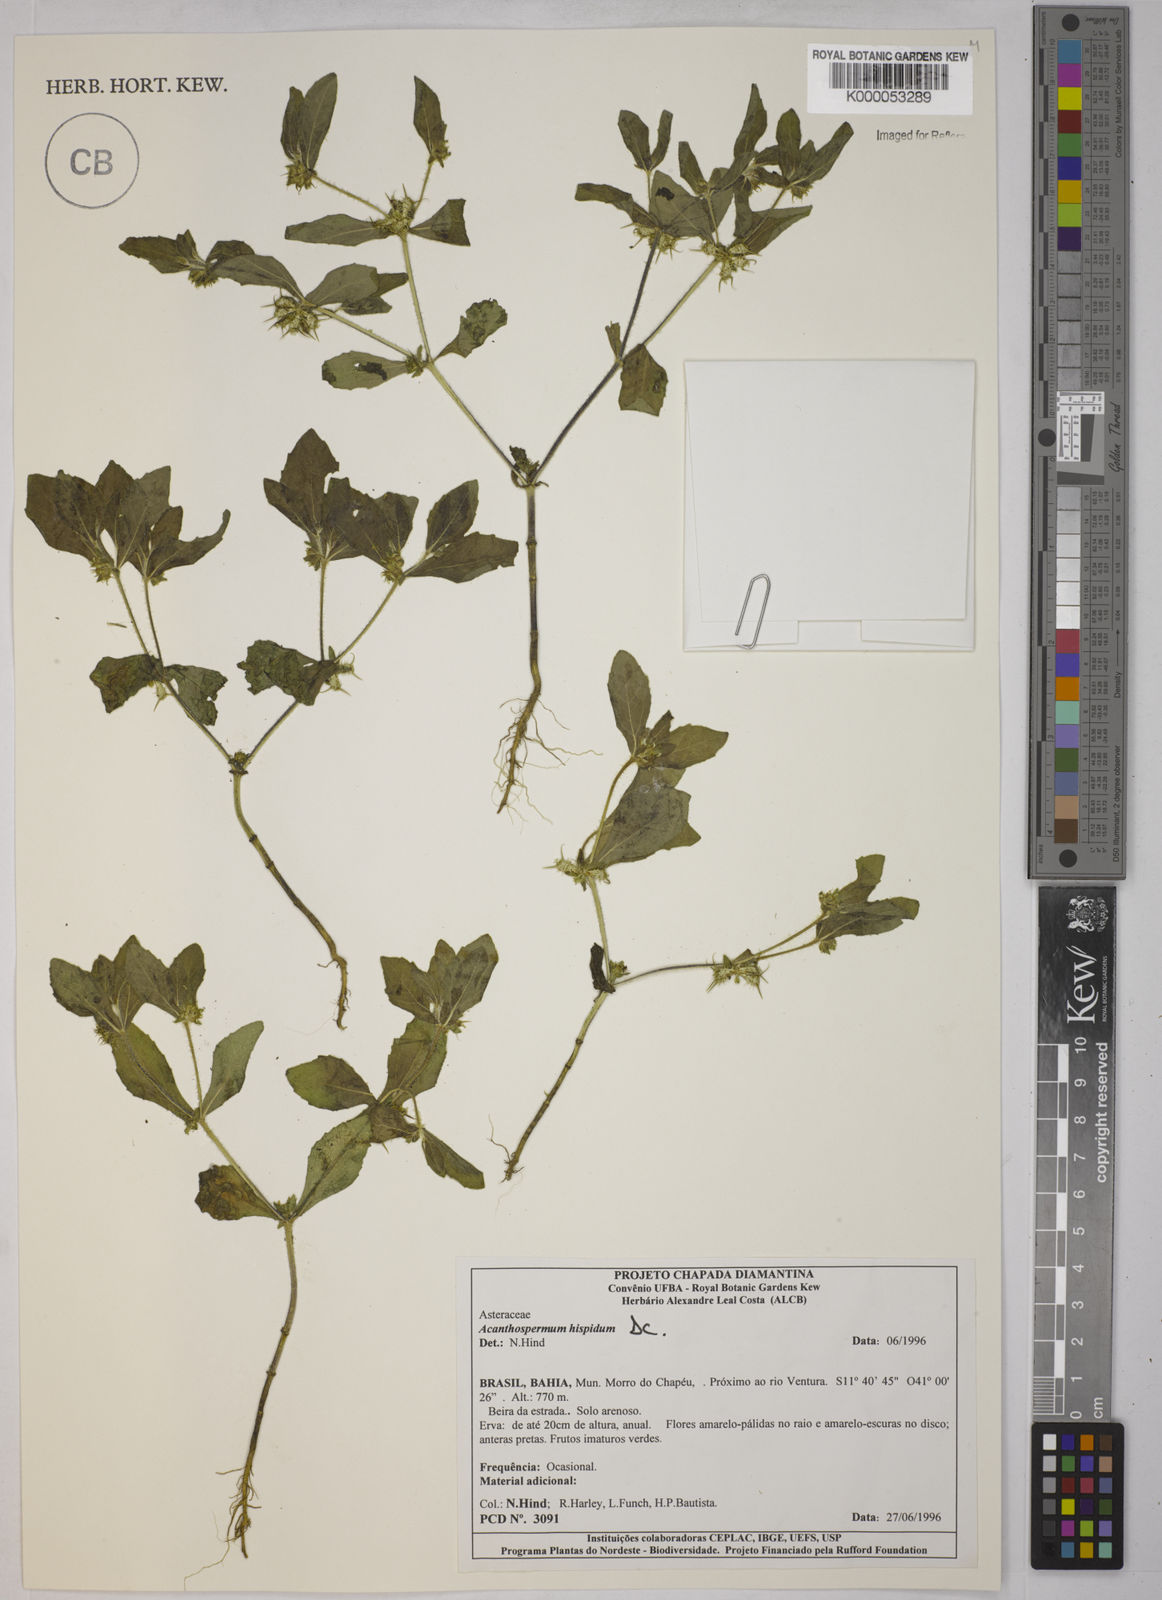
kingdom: Plantae
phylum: Tracheophyta
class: Magnoliopsida
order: Asterales
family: Asteraceae
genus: Acanthospermum
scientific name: Acanthospermum hispidum
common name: Hispid starbur
